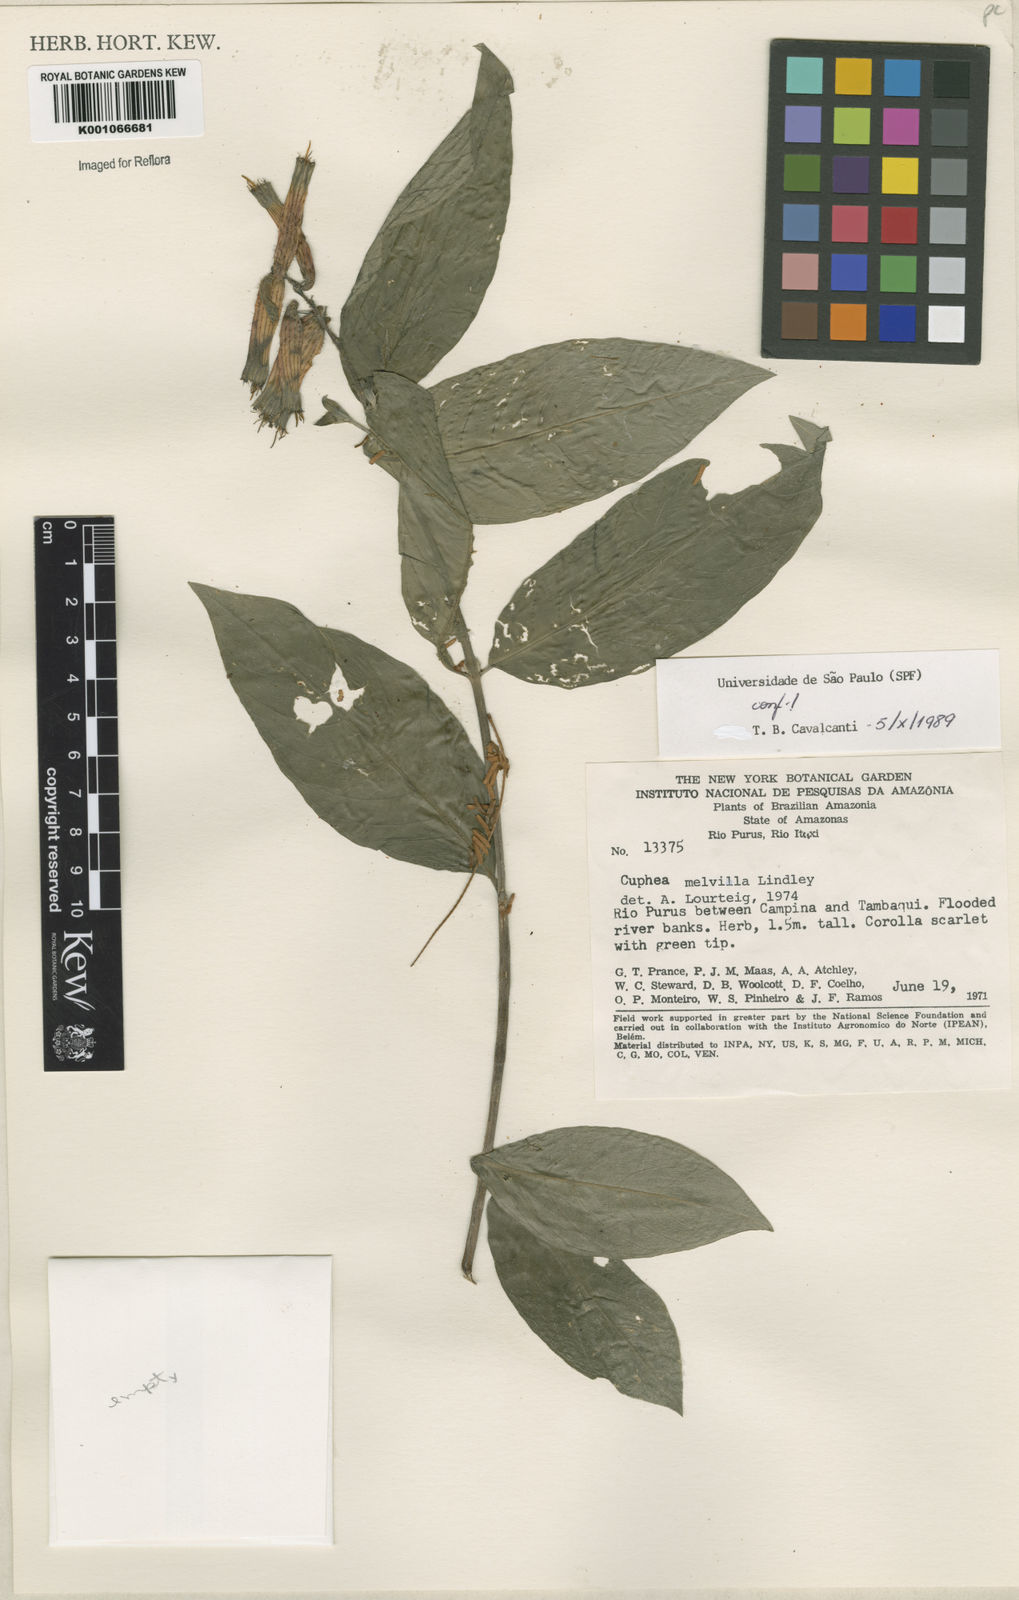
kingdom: Plantae
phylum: Tracheophyta
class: Magnoliopsida
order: Myrtales
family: Lythraceae
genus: Cuphea
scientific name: Cuphea melvilla
